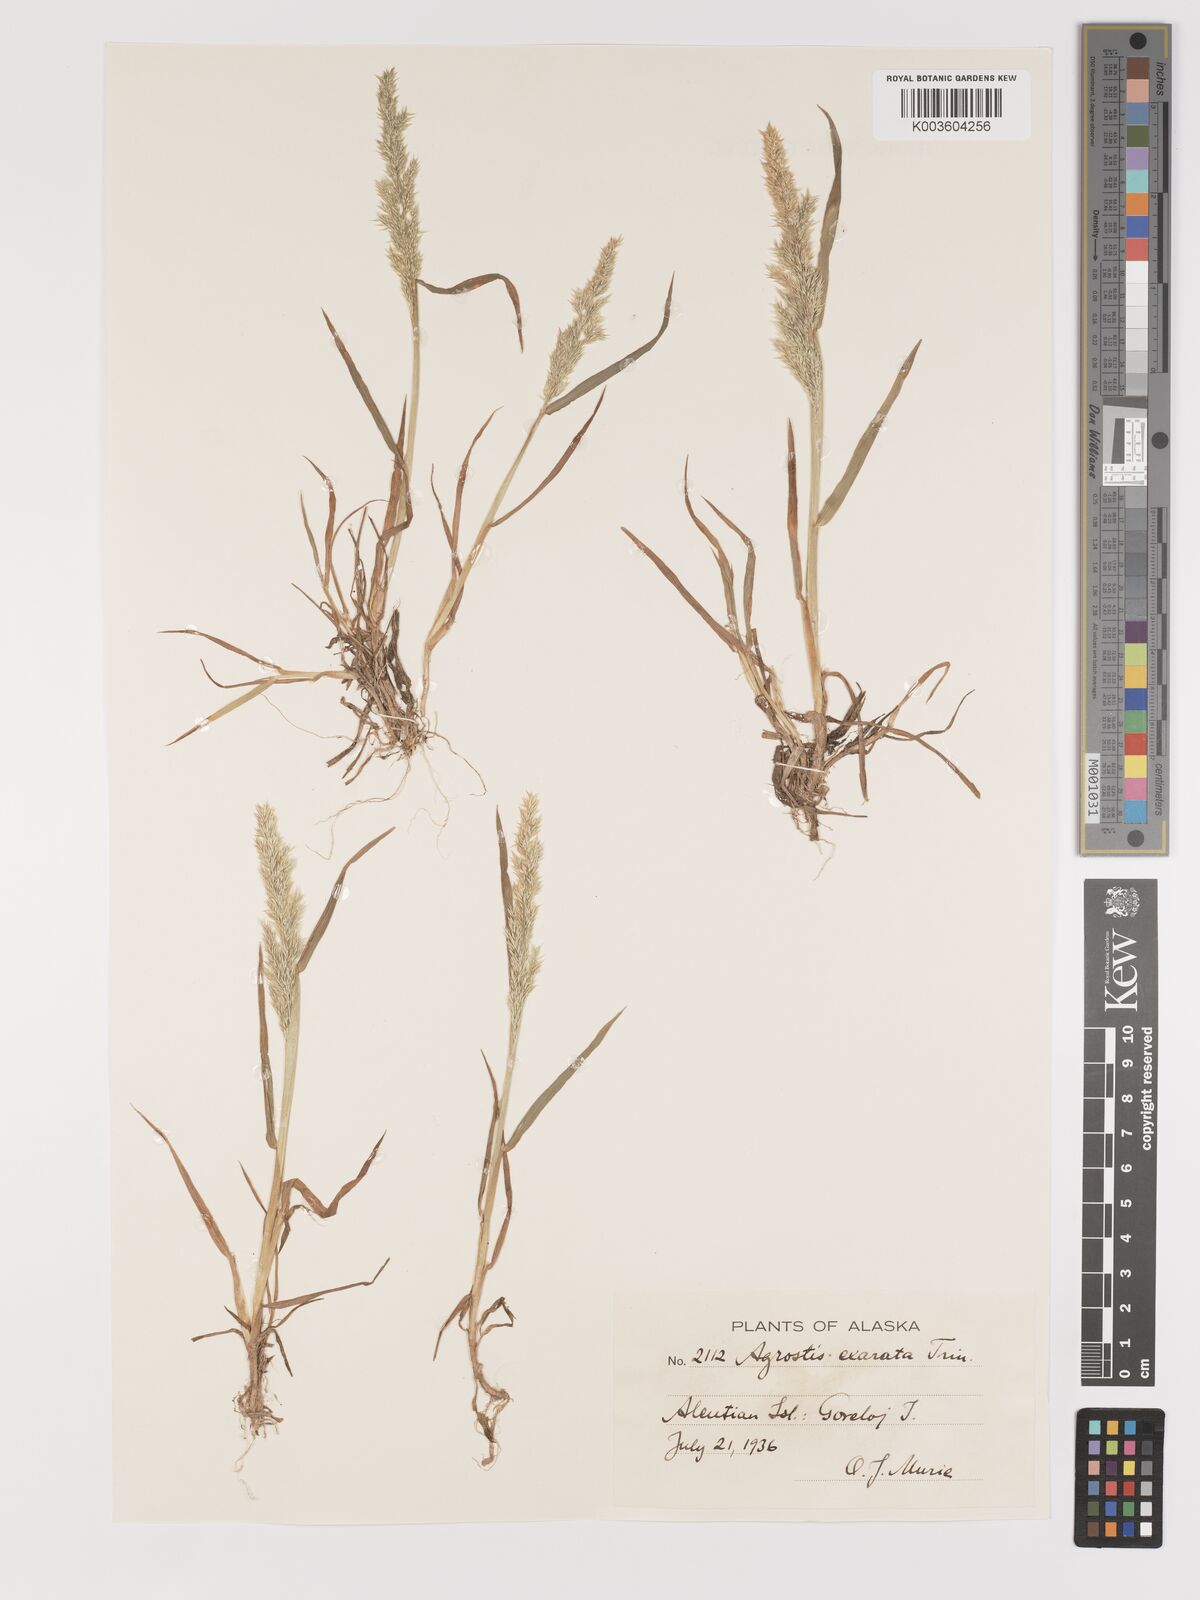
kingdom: Plantae
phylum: Tracheophyta
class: Liliopsida
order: Poales
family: Poaceae
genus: Agrostis
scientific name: Agrostis exarata
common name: Spike bent
